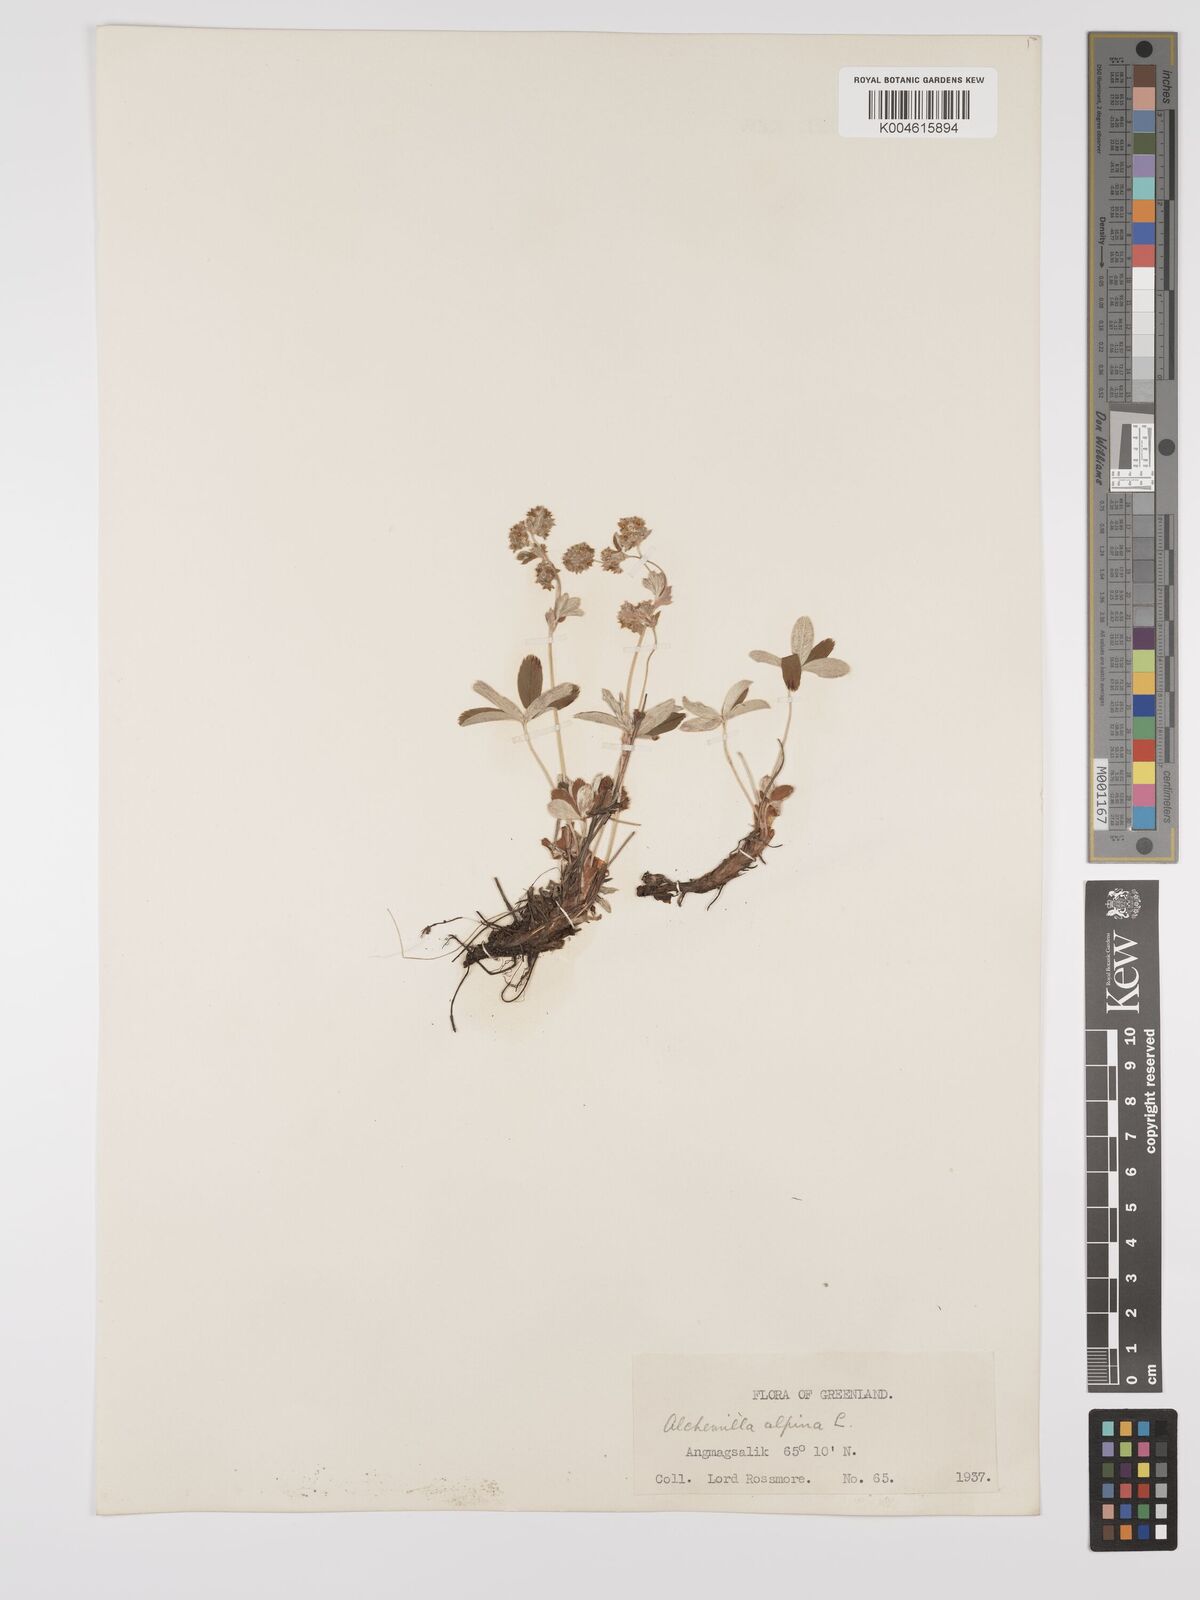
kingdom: Plantae
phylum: Tracheophyta
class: Magnoliopsida
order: Rosales
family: Rosaceae
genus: Alchemilla
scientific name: Alchemilla alpina
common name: Alpine lady's-mantle
